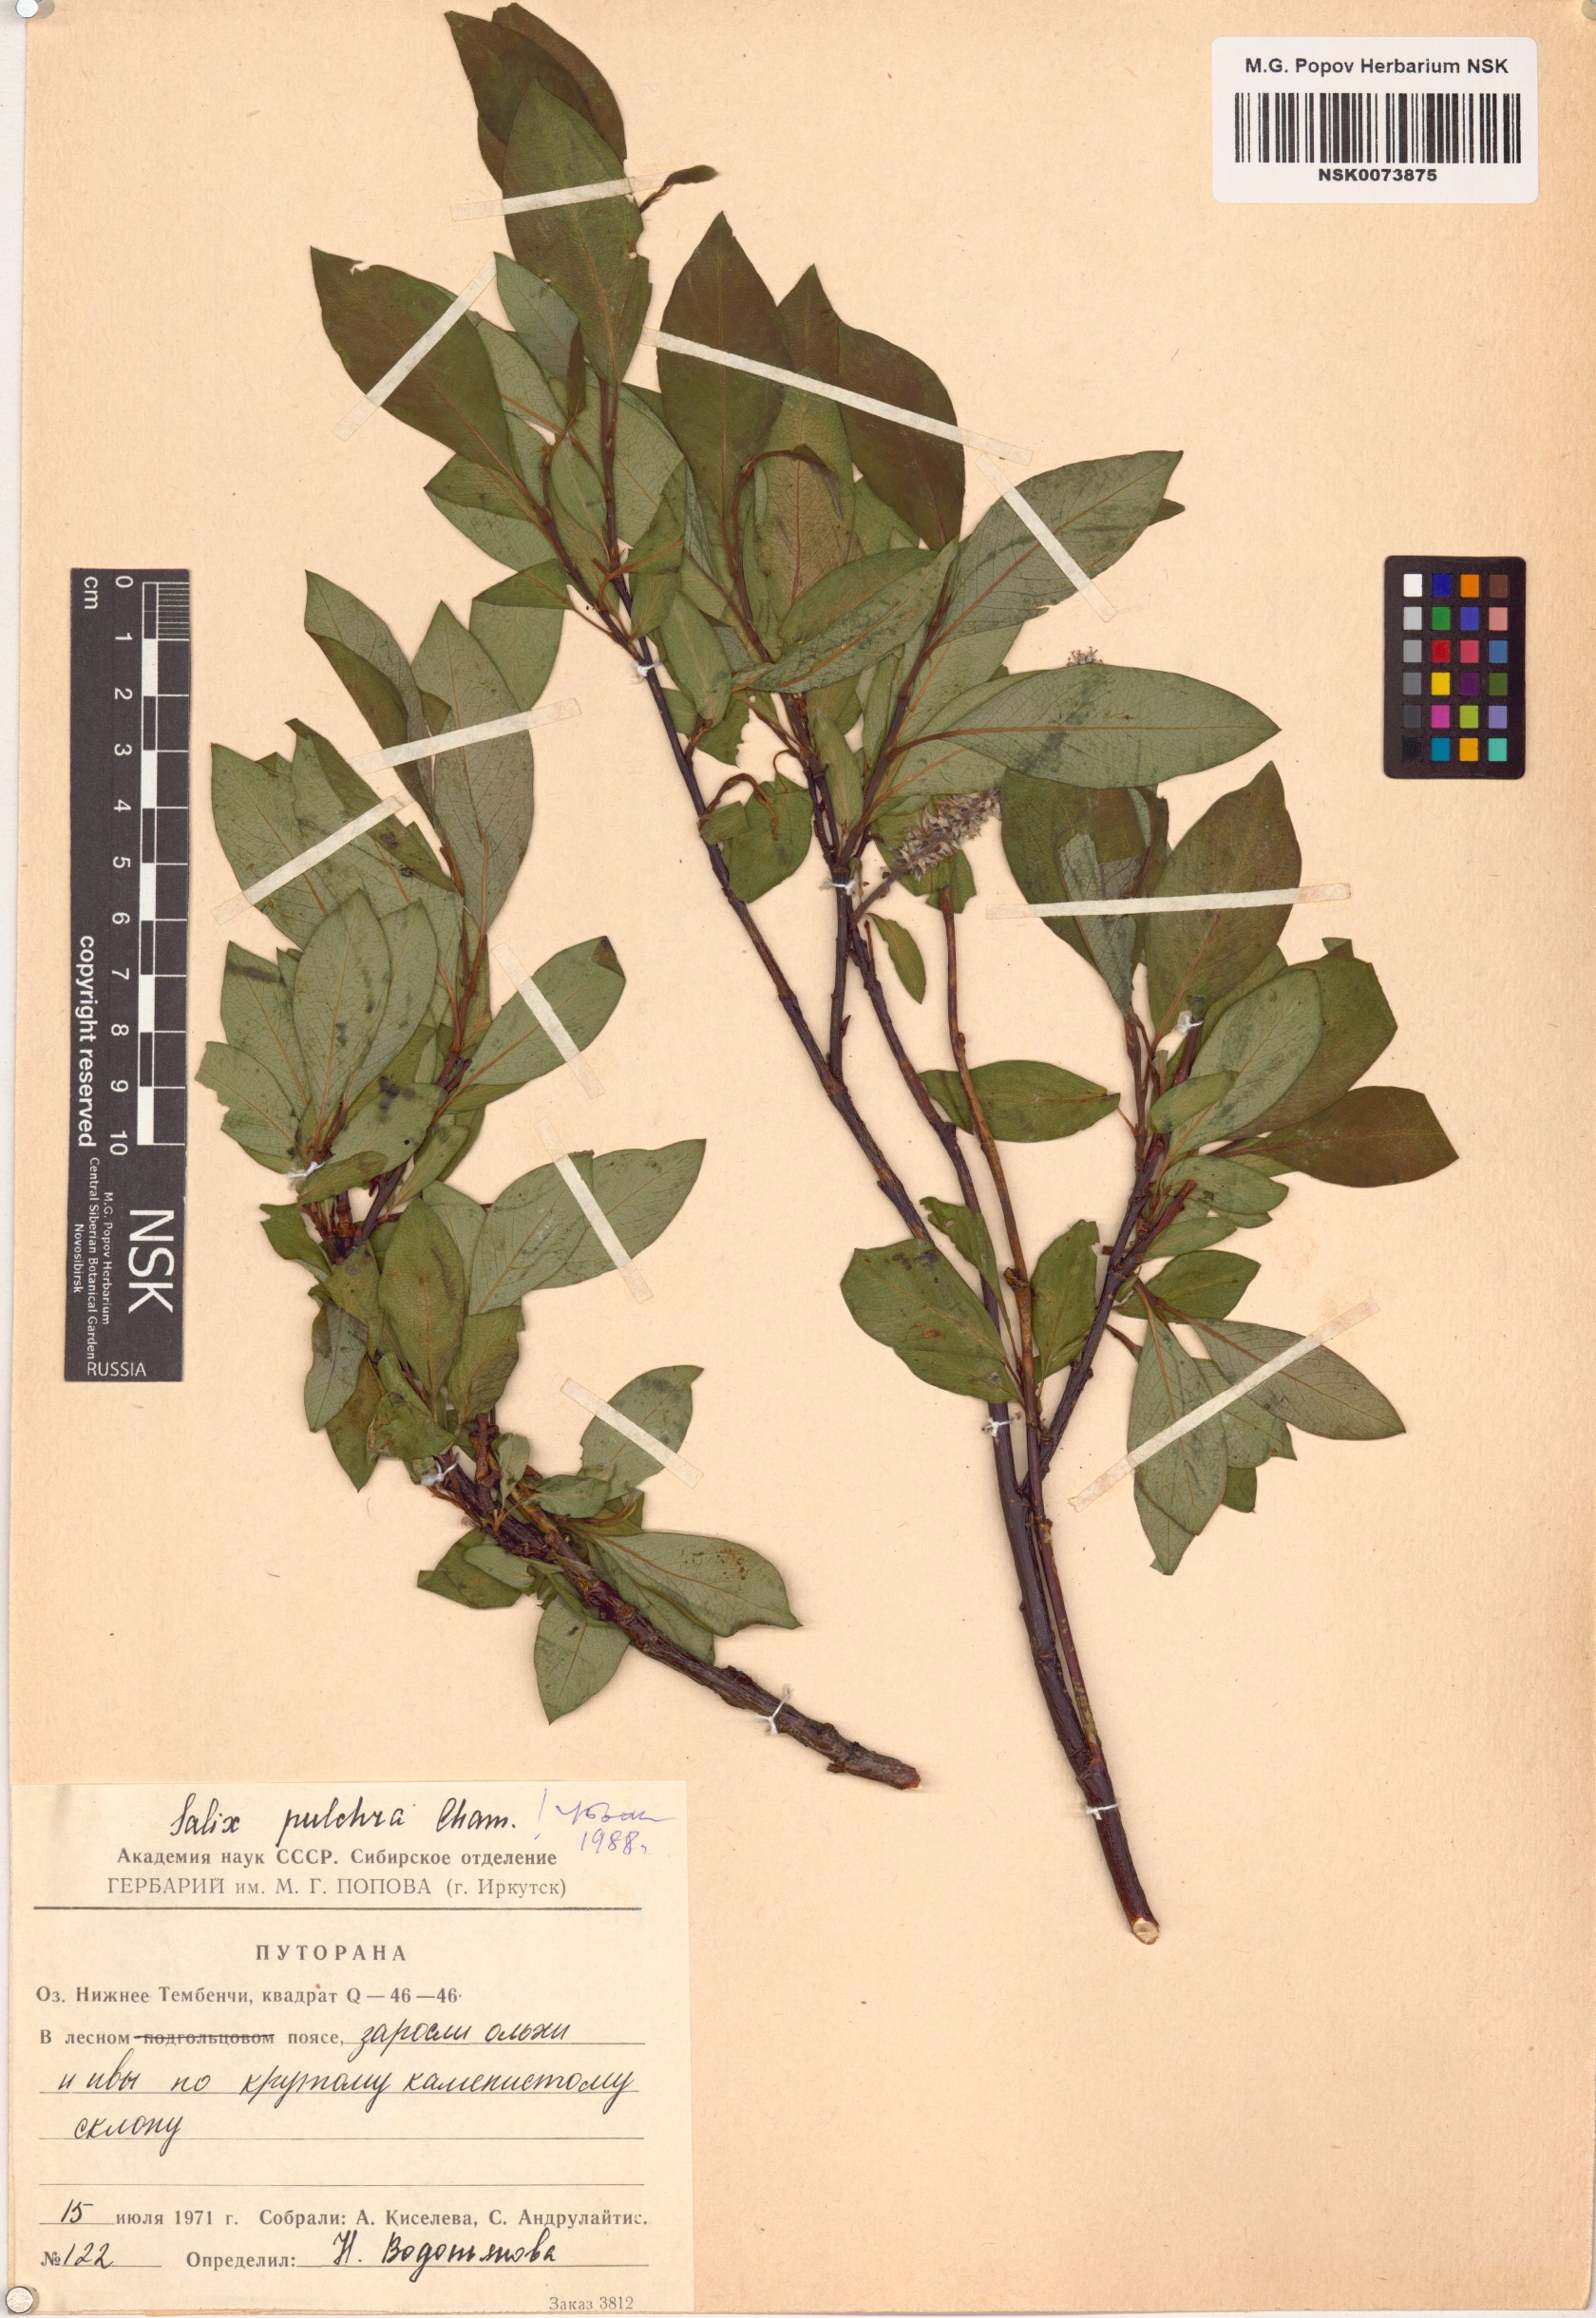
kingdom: Plantae
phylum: Tracheophyta
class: Magnoliopsida
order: Malpighiales
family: Salicaceae
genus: Salix
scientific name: Salix pulchra
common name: Diamond-leaved willow
